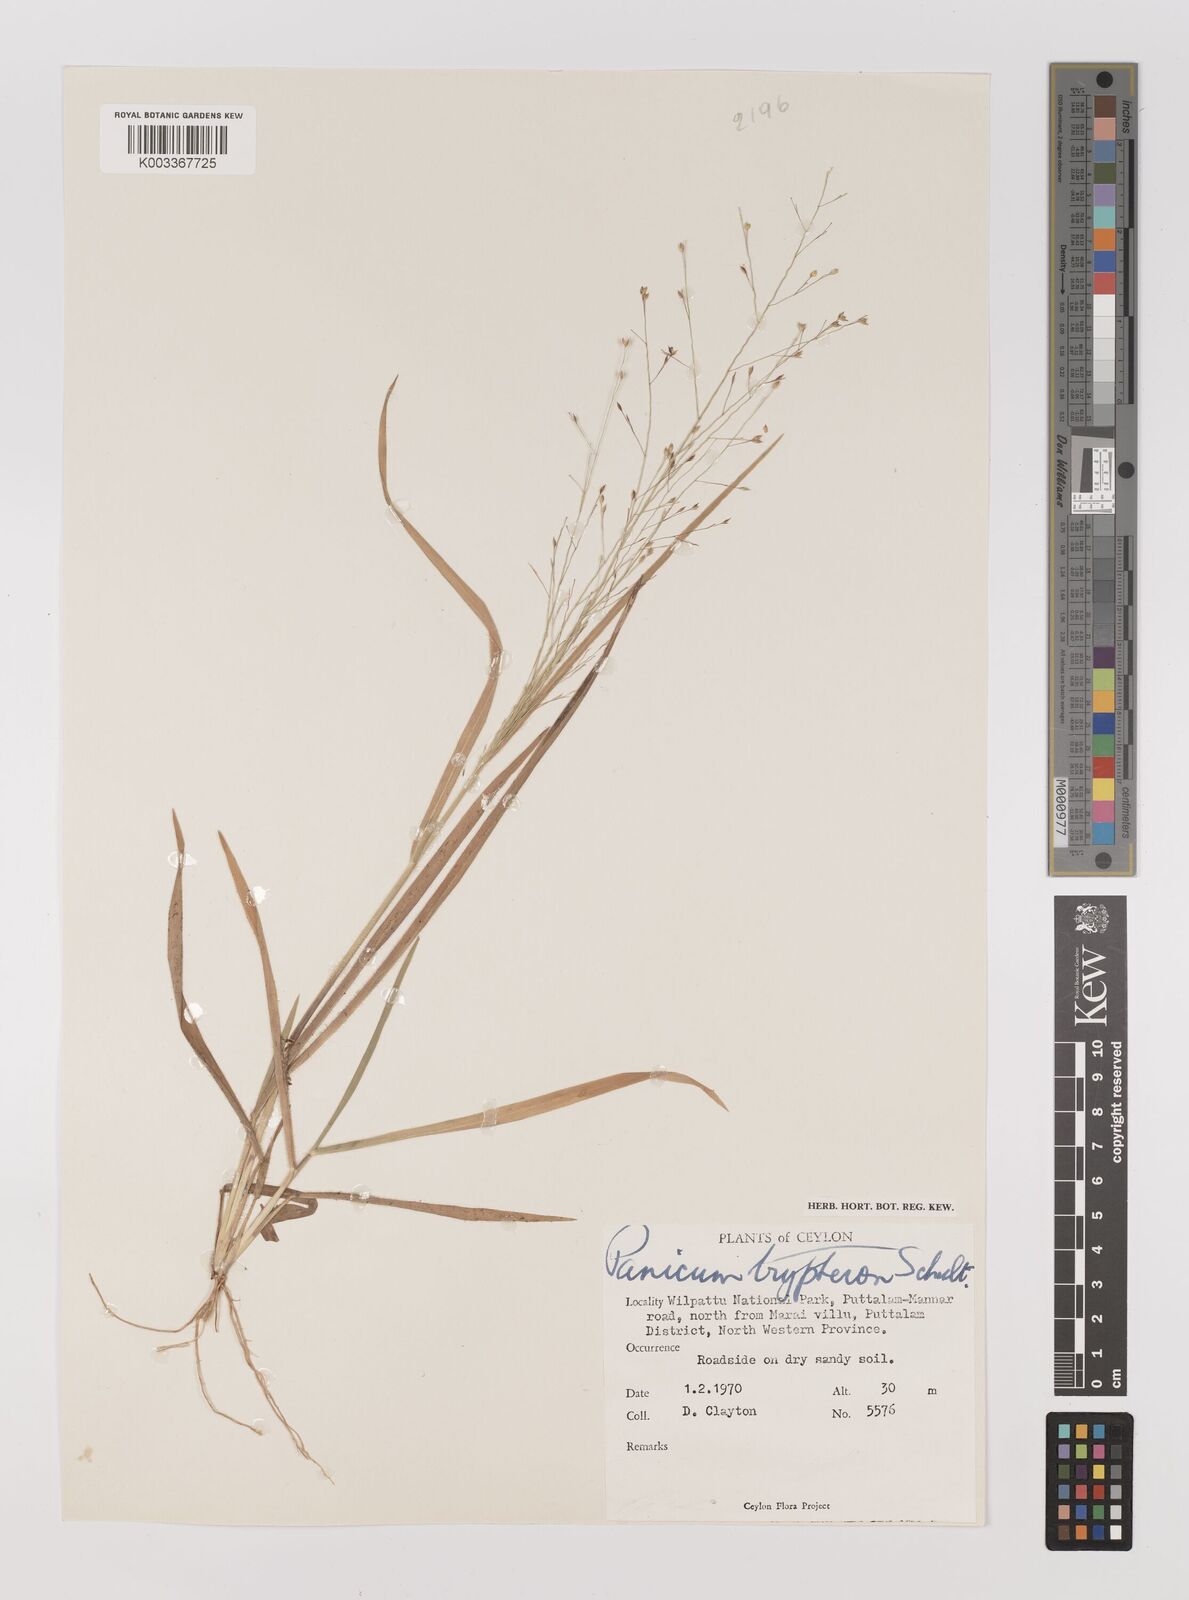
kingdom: Plantae
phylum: Tracheophyta
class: Liliopsida
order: Poales
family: Poaceae
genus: Panicum
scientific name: Panicum curviflorum
